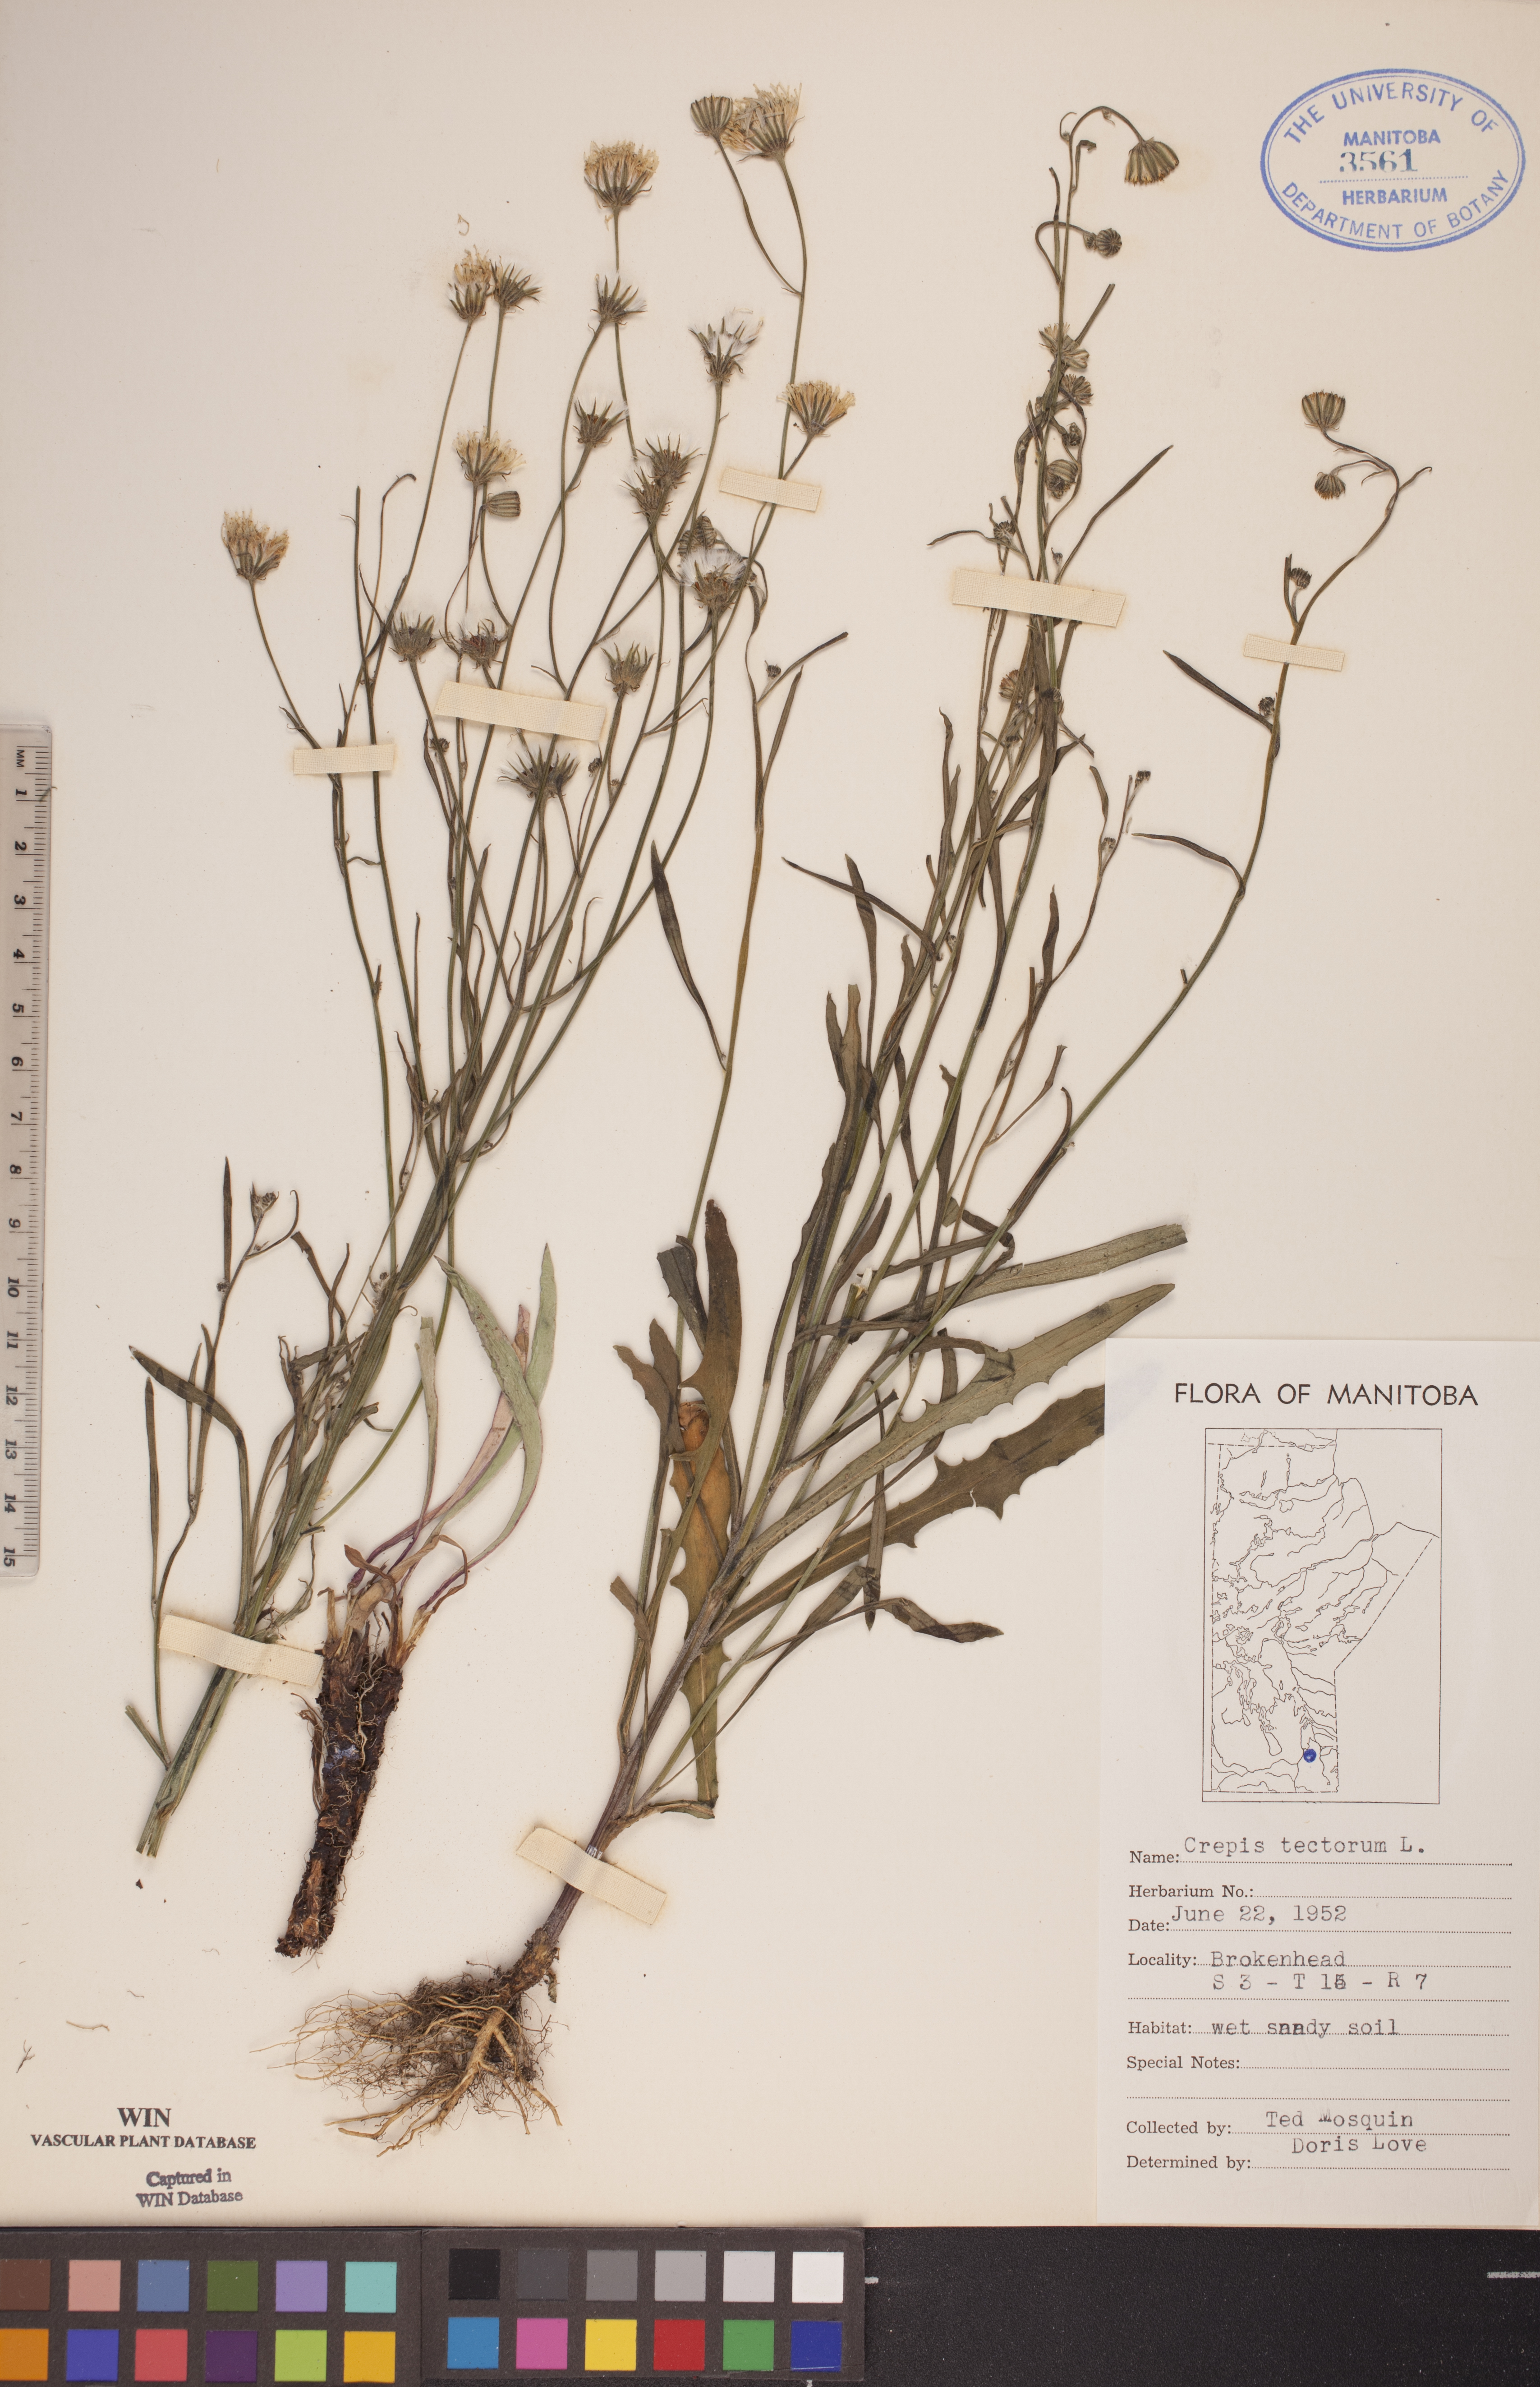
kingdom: Plantae
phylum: Tracheophyta
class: Magnoliopsida
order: Asterales
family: Asteraceae
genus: Crepis
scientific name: Crepis tectorum
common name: Narrow-leaved hawk's-beard
